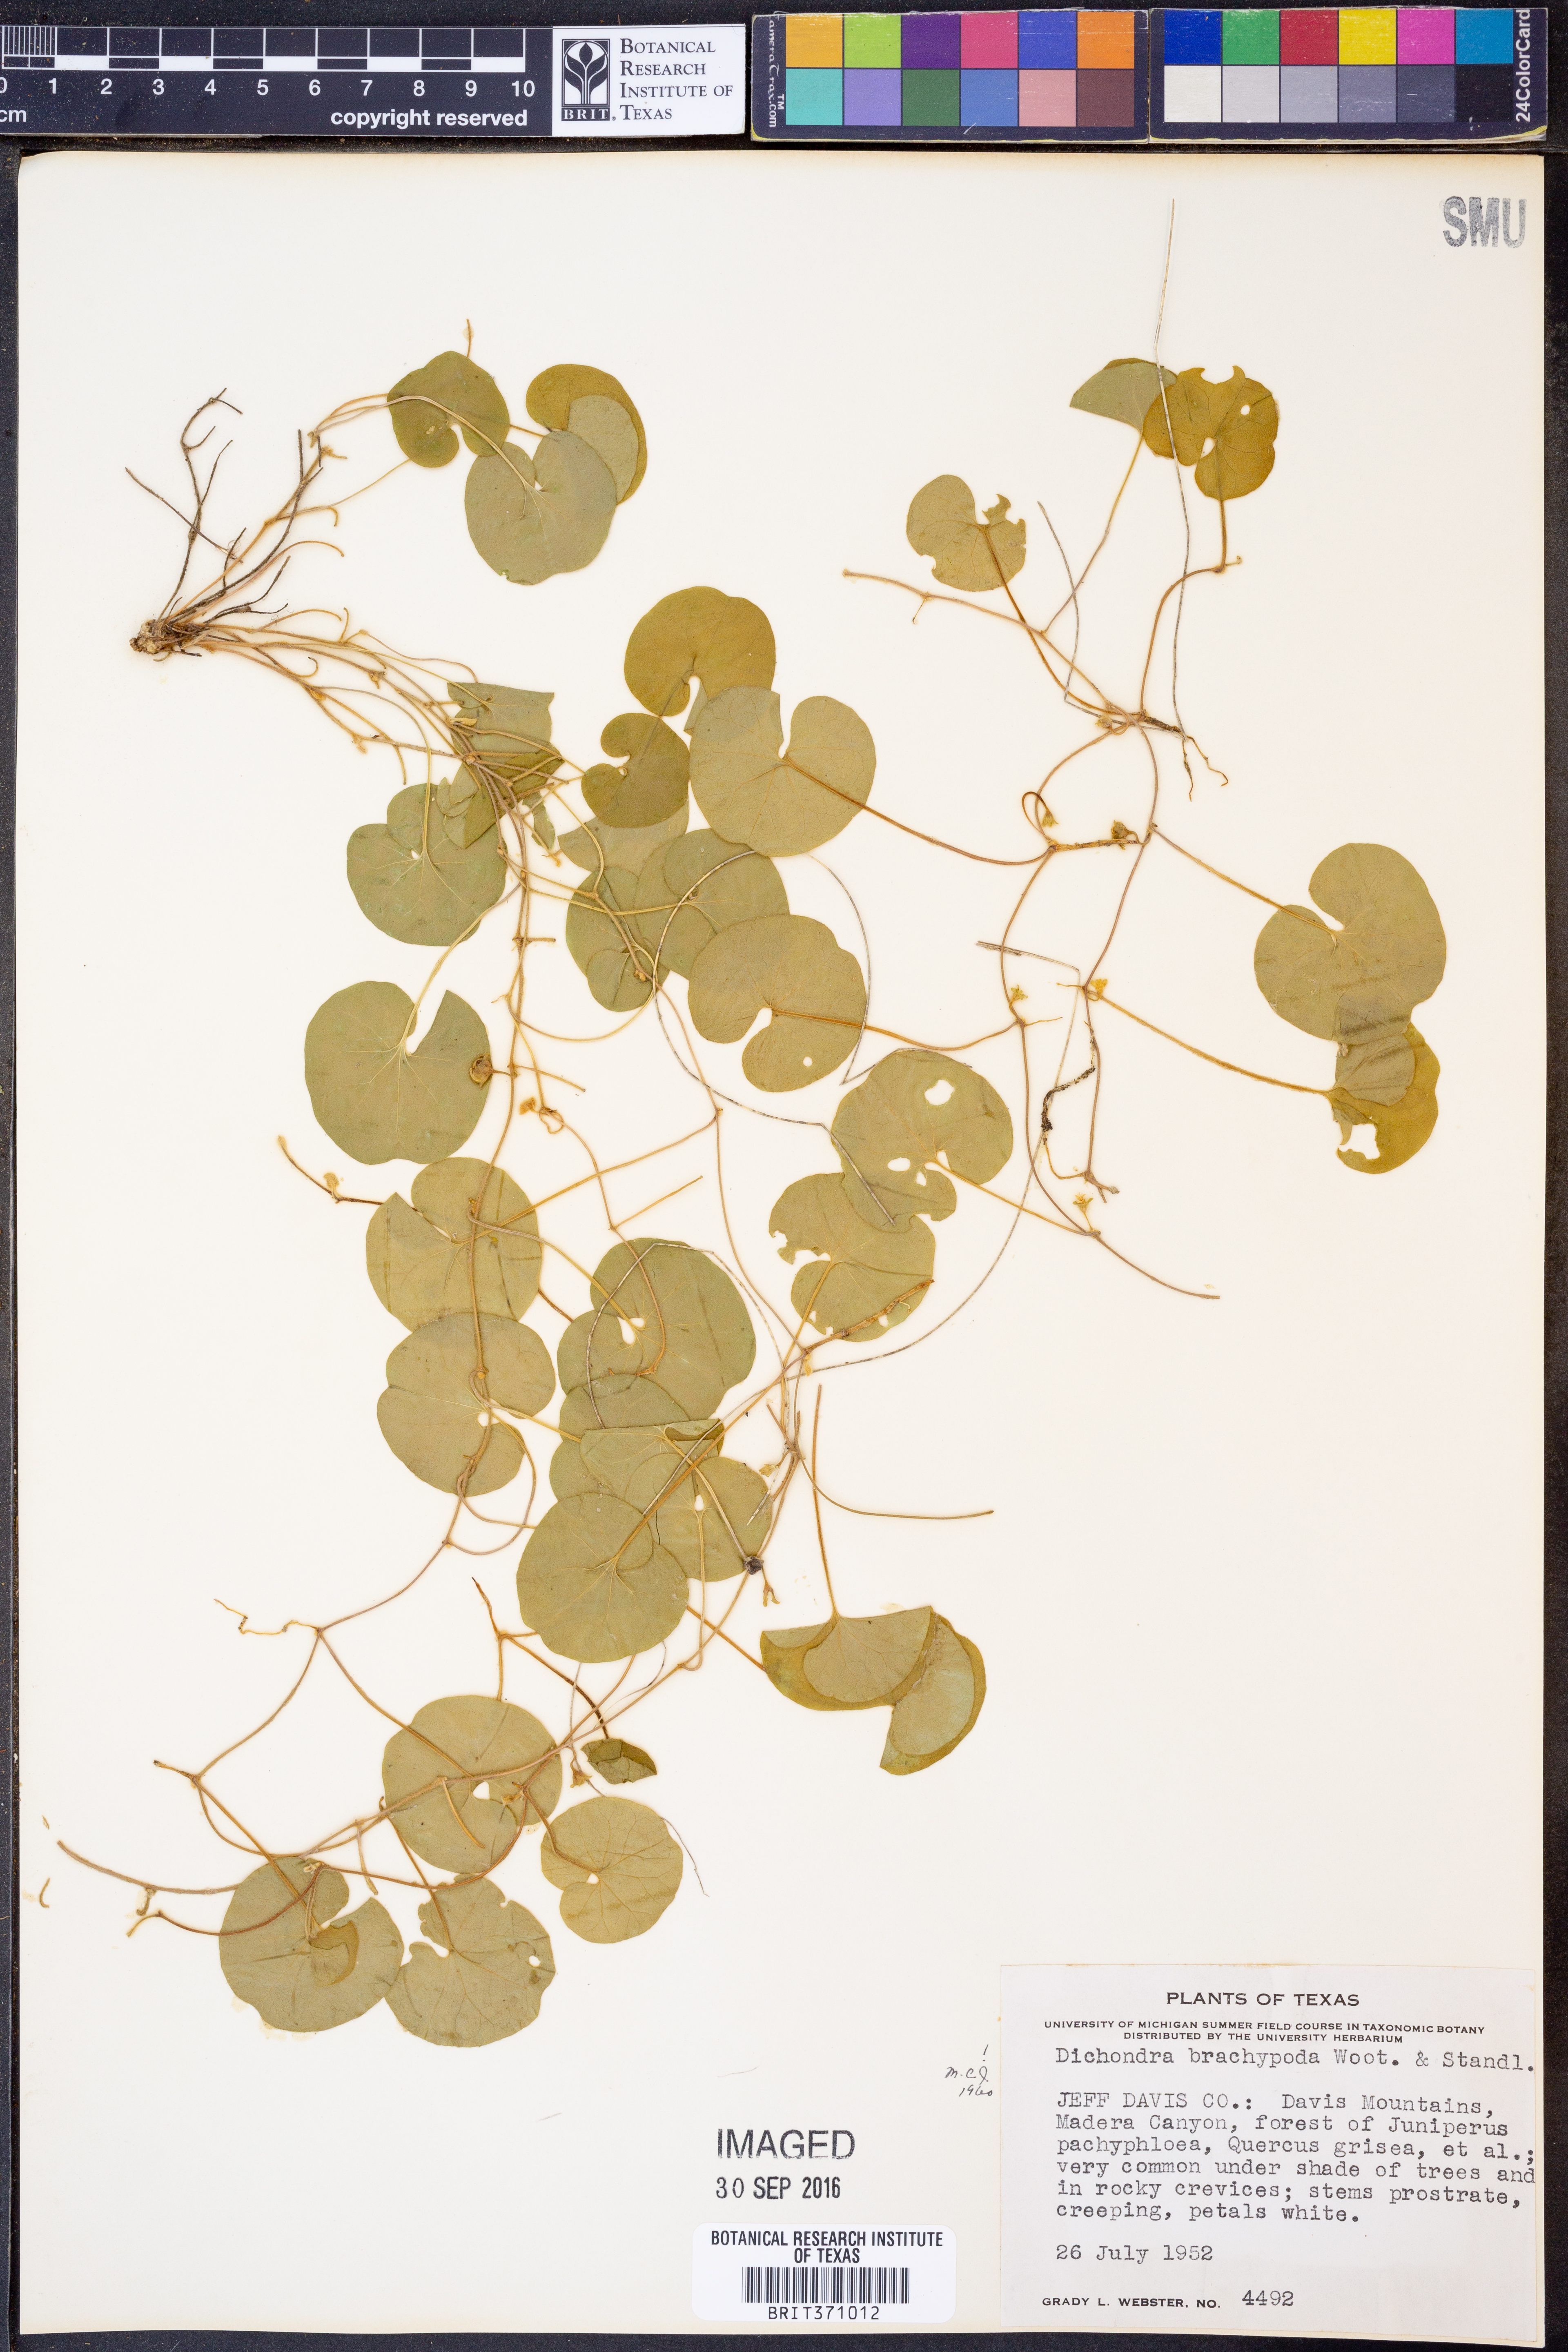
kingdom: Plantae
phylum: Tracheophyta
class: Magnoliopsida
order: Solanales
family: Convolvulaceae
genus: Dichondra
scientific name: Dichondra brachypoda
